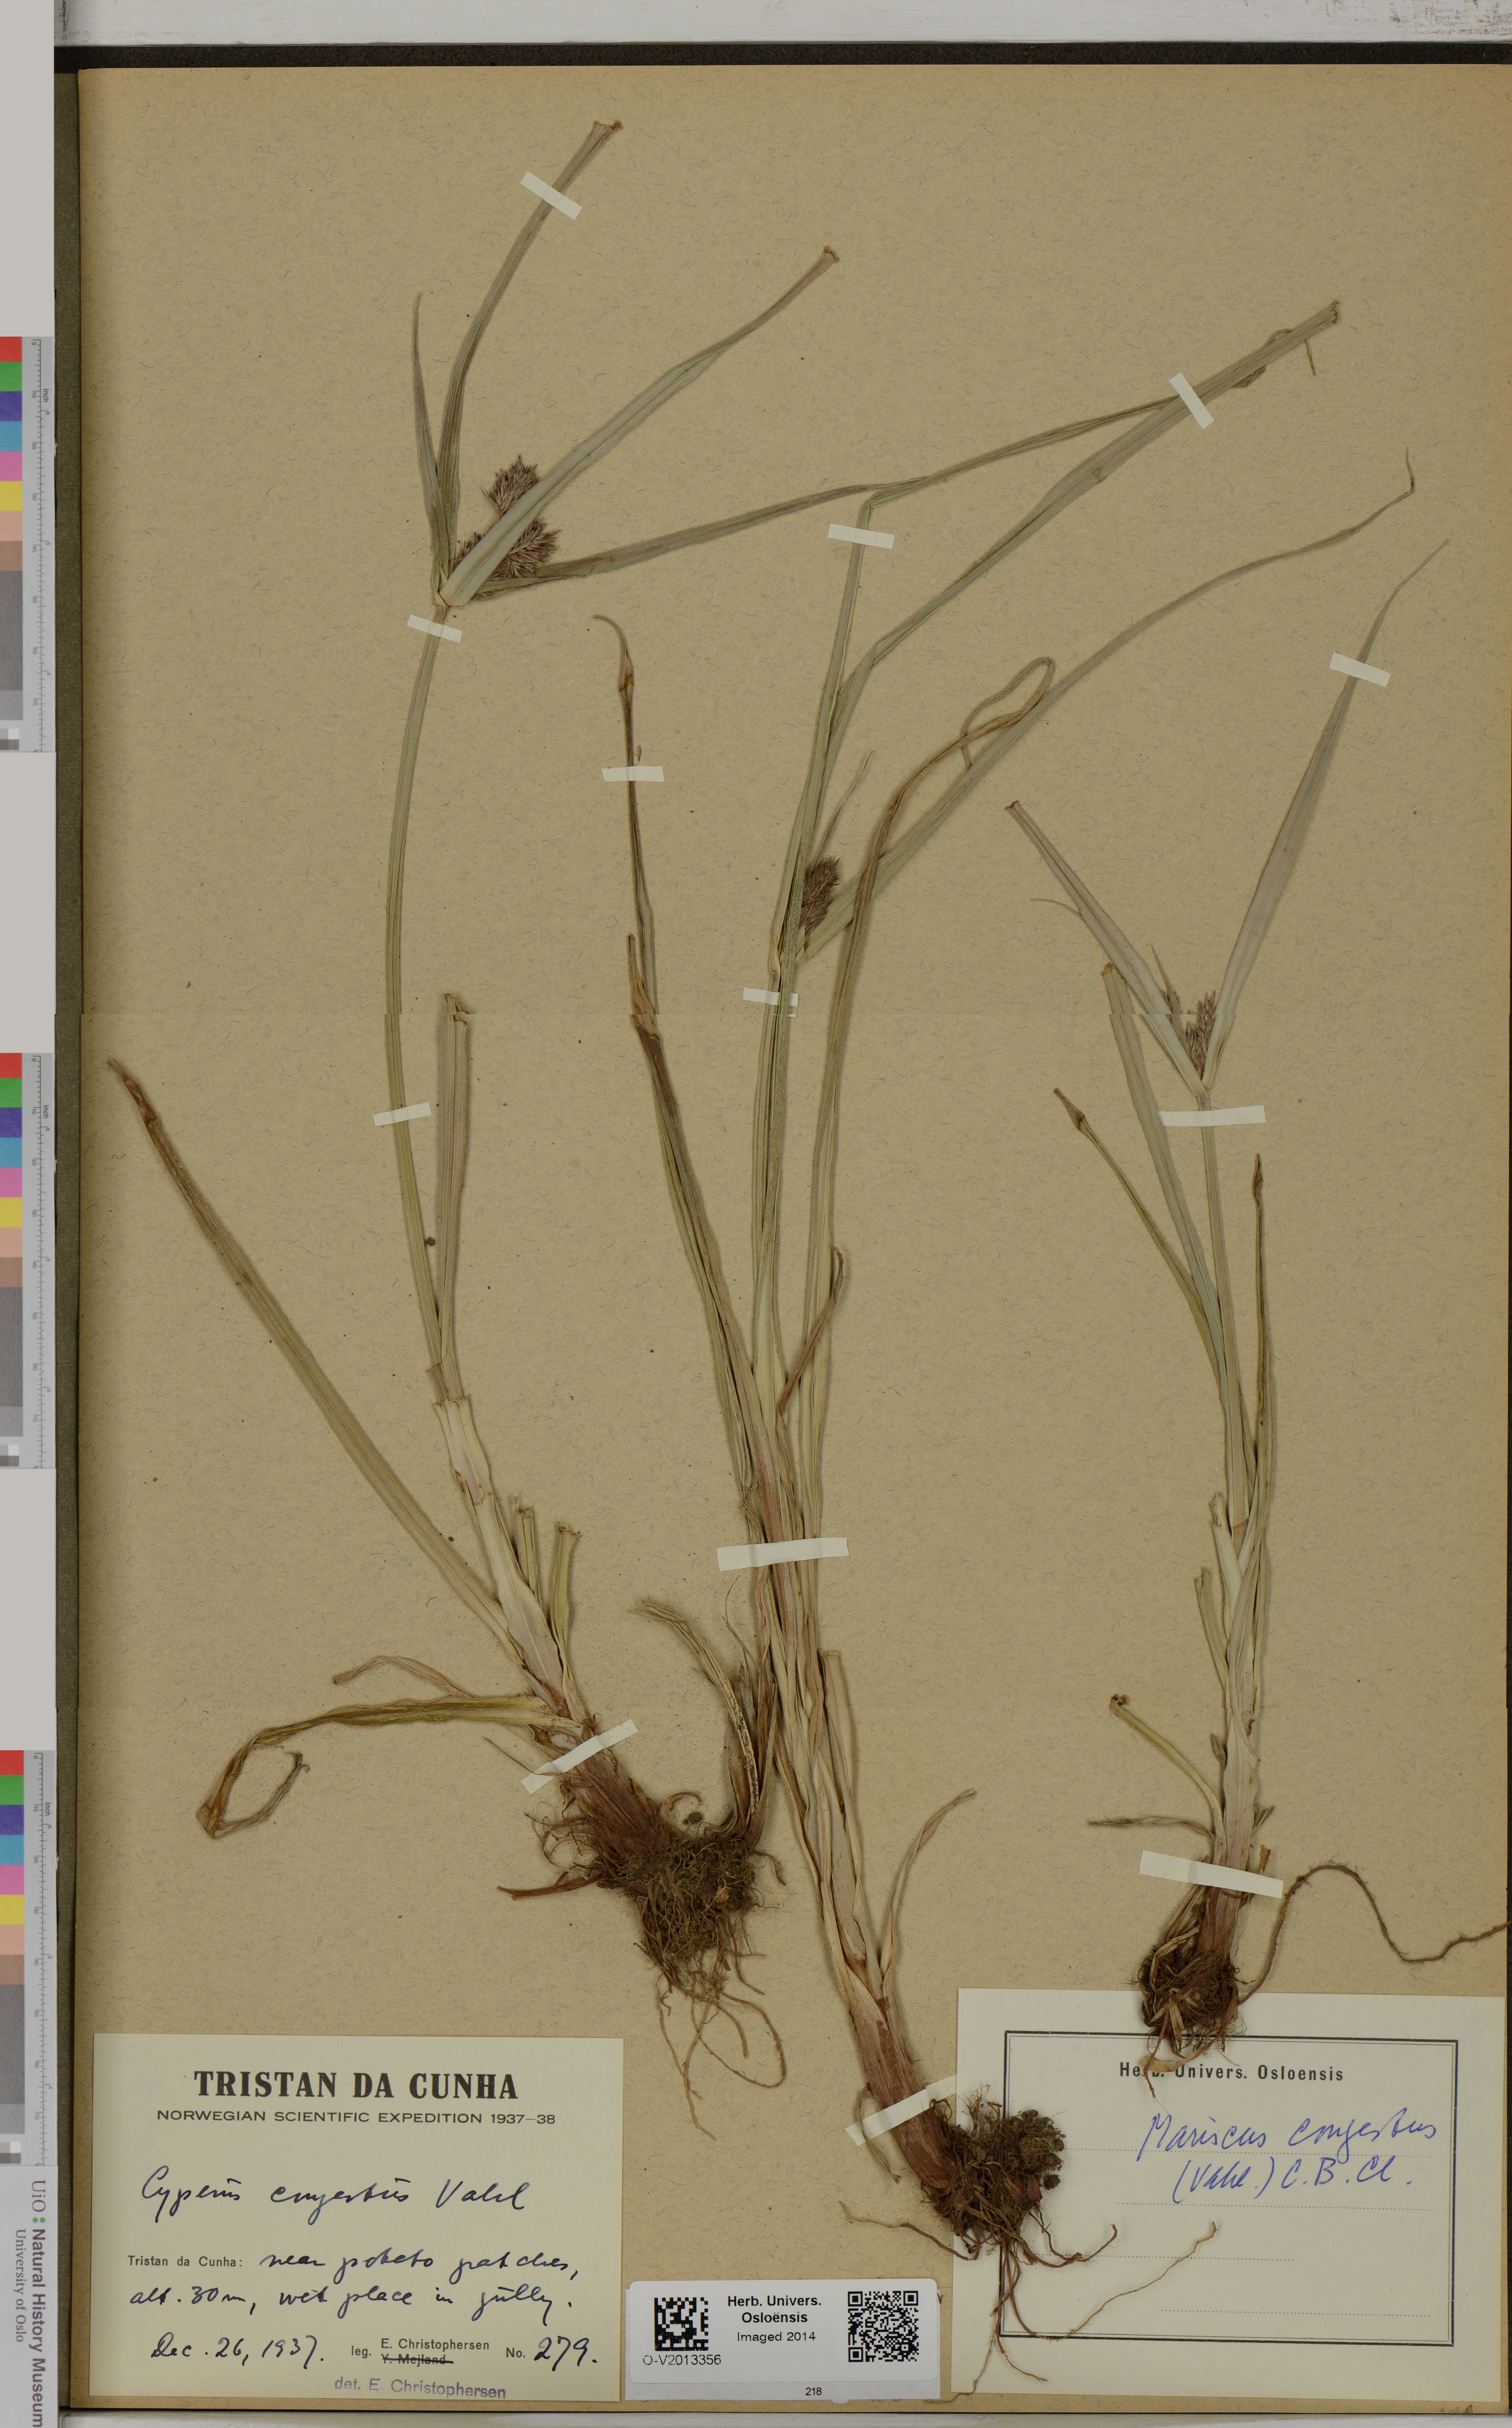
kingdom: Plantae
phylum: Tracheophyta
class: Liliopsida
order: Poales
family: Cyperaceae
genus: Cyperus
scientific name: Cyperus congestus
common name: Dense flat sedge
